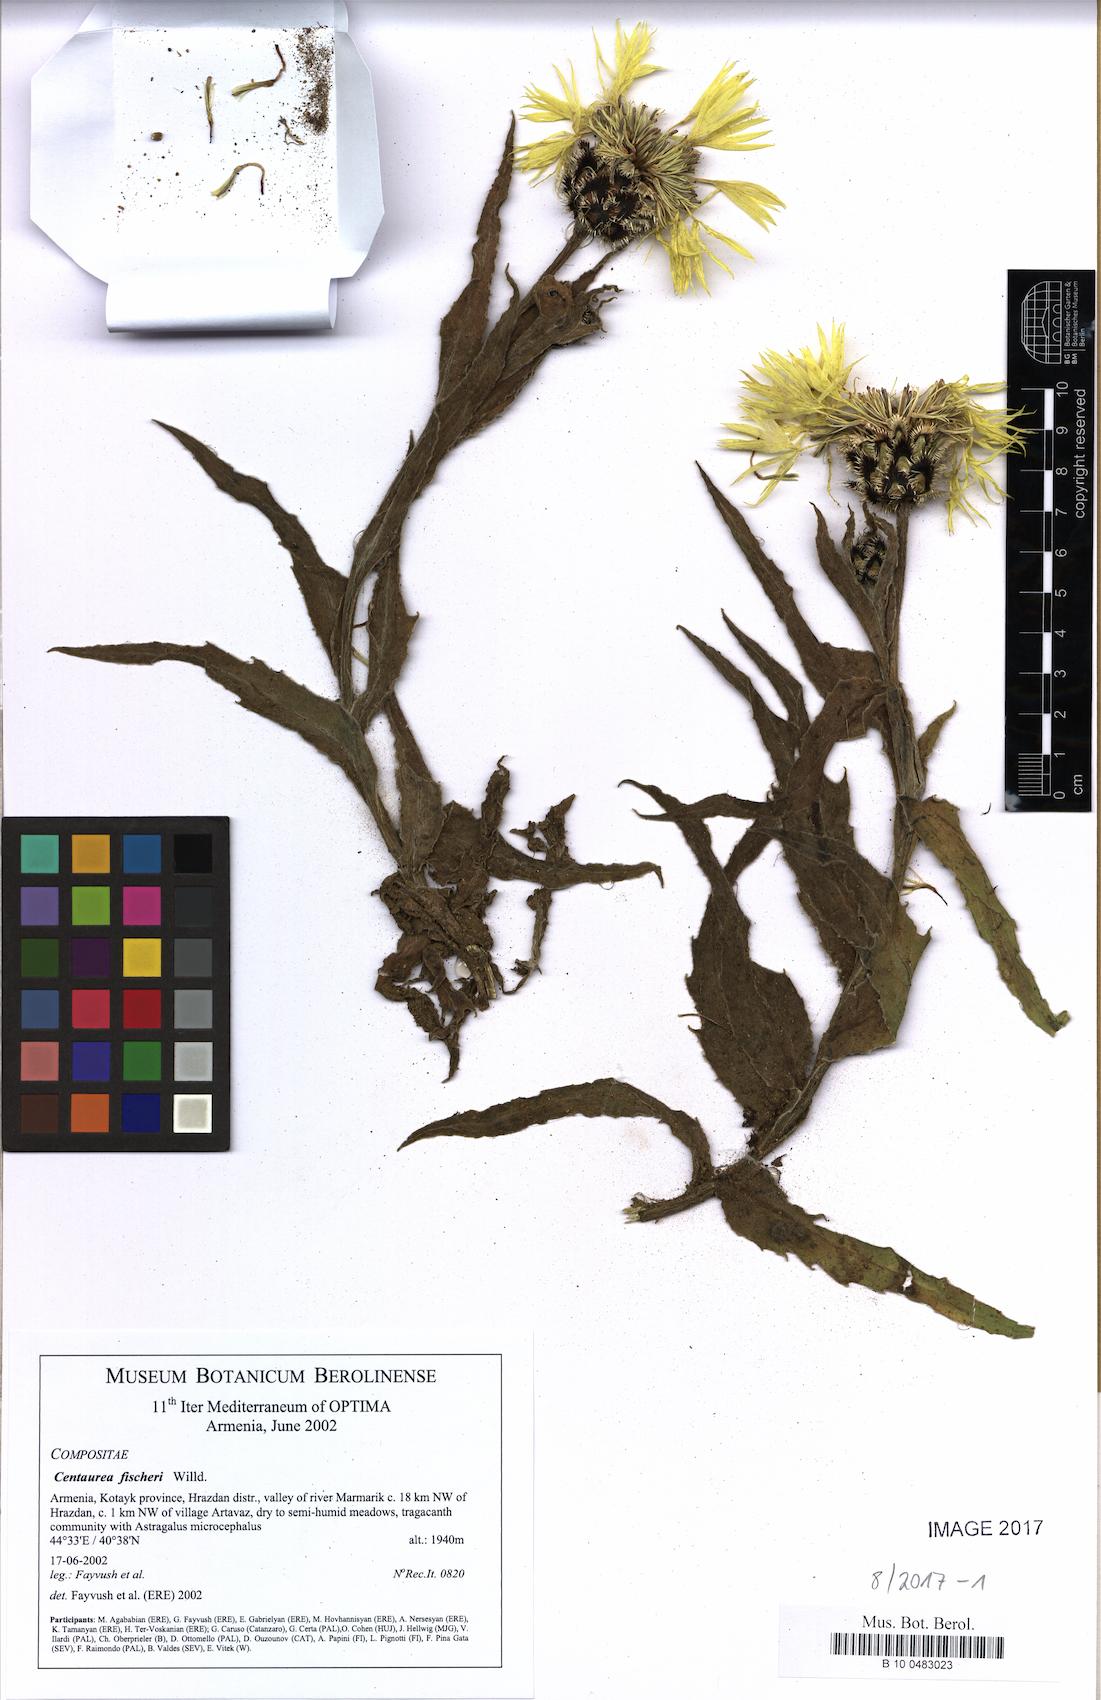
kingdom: Plantae
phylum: Tracheophyta
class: Magnoliopsida
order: Asterales
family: Asteraceae
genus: Centaurea
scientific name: Centaurea cheiranthifolia
